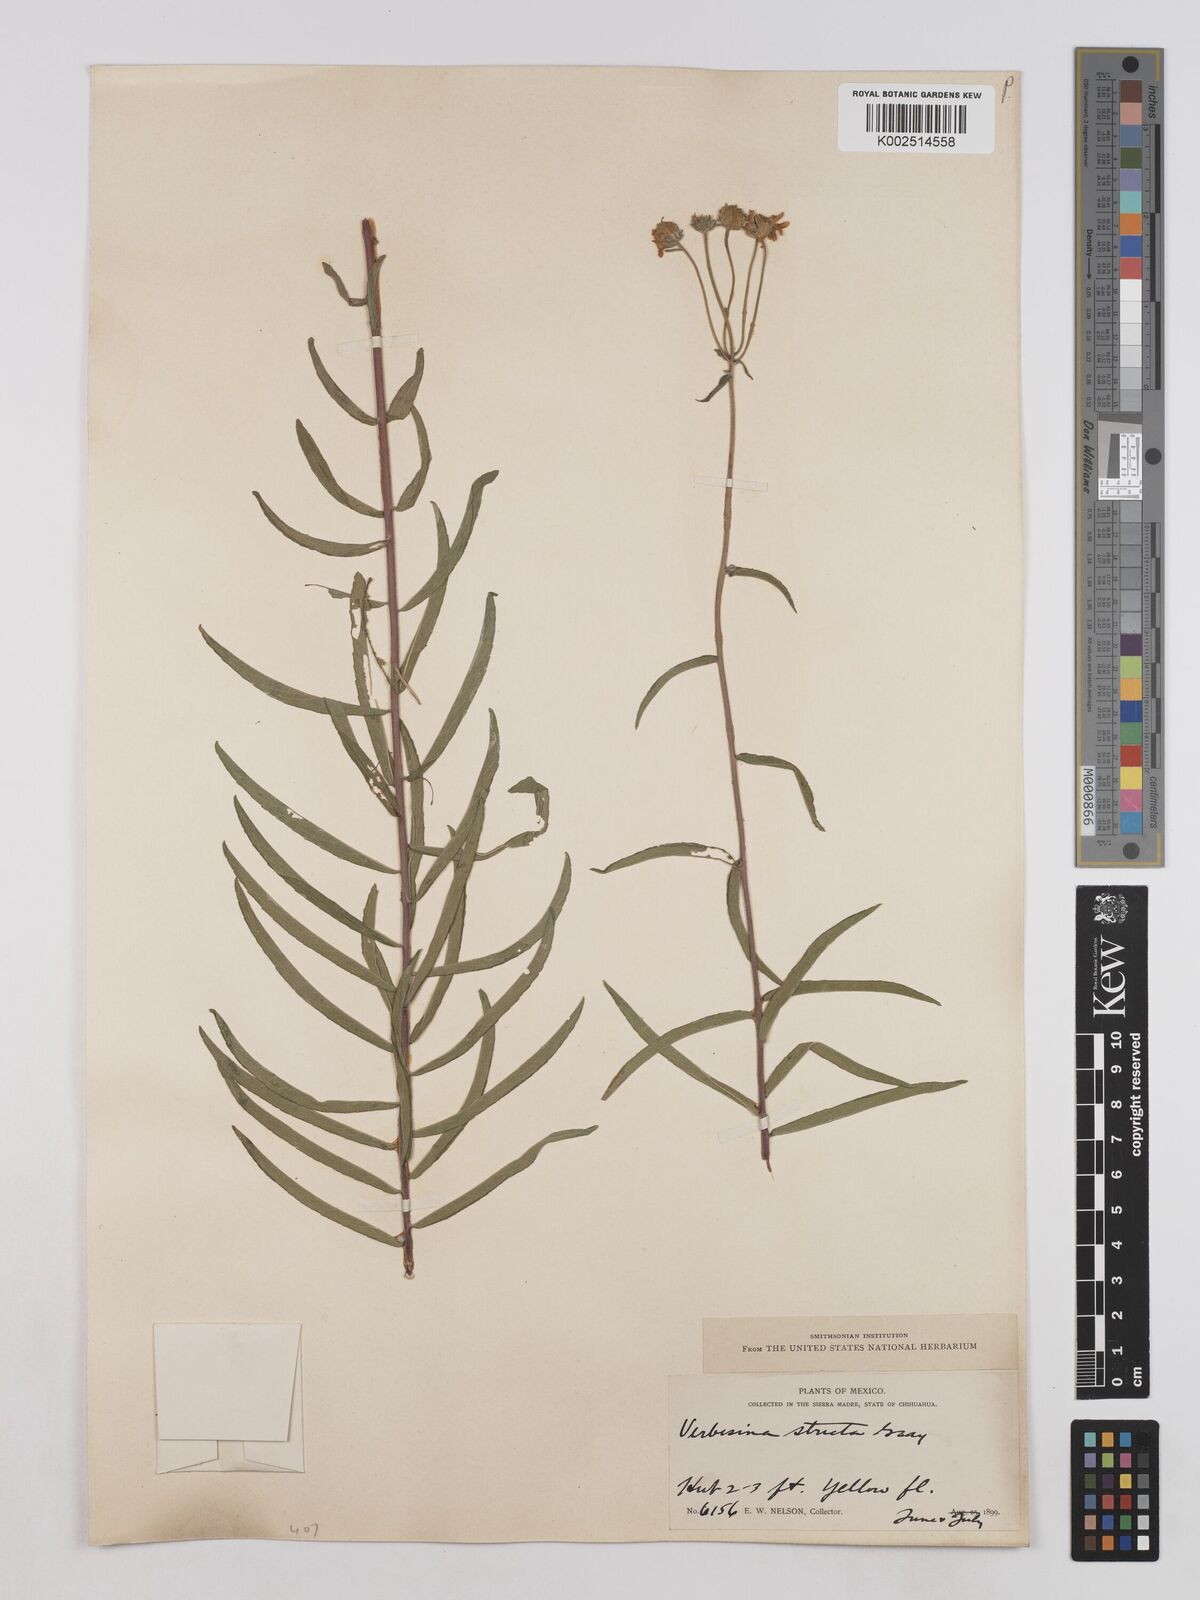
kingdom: Plantae
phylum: Tracheophyta
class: Magnoliopsida
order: Asterales
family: Asteraceae
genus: Verbesina
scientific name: Verbesina parviflora
